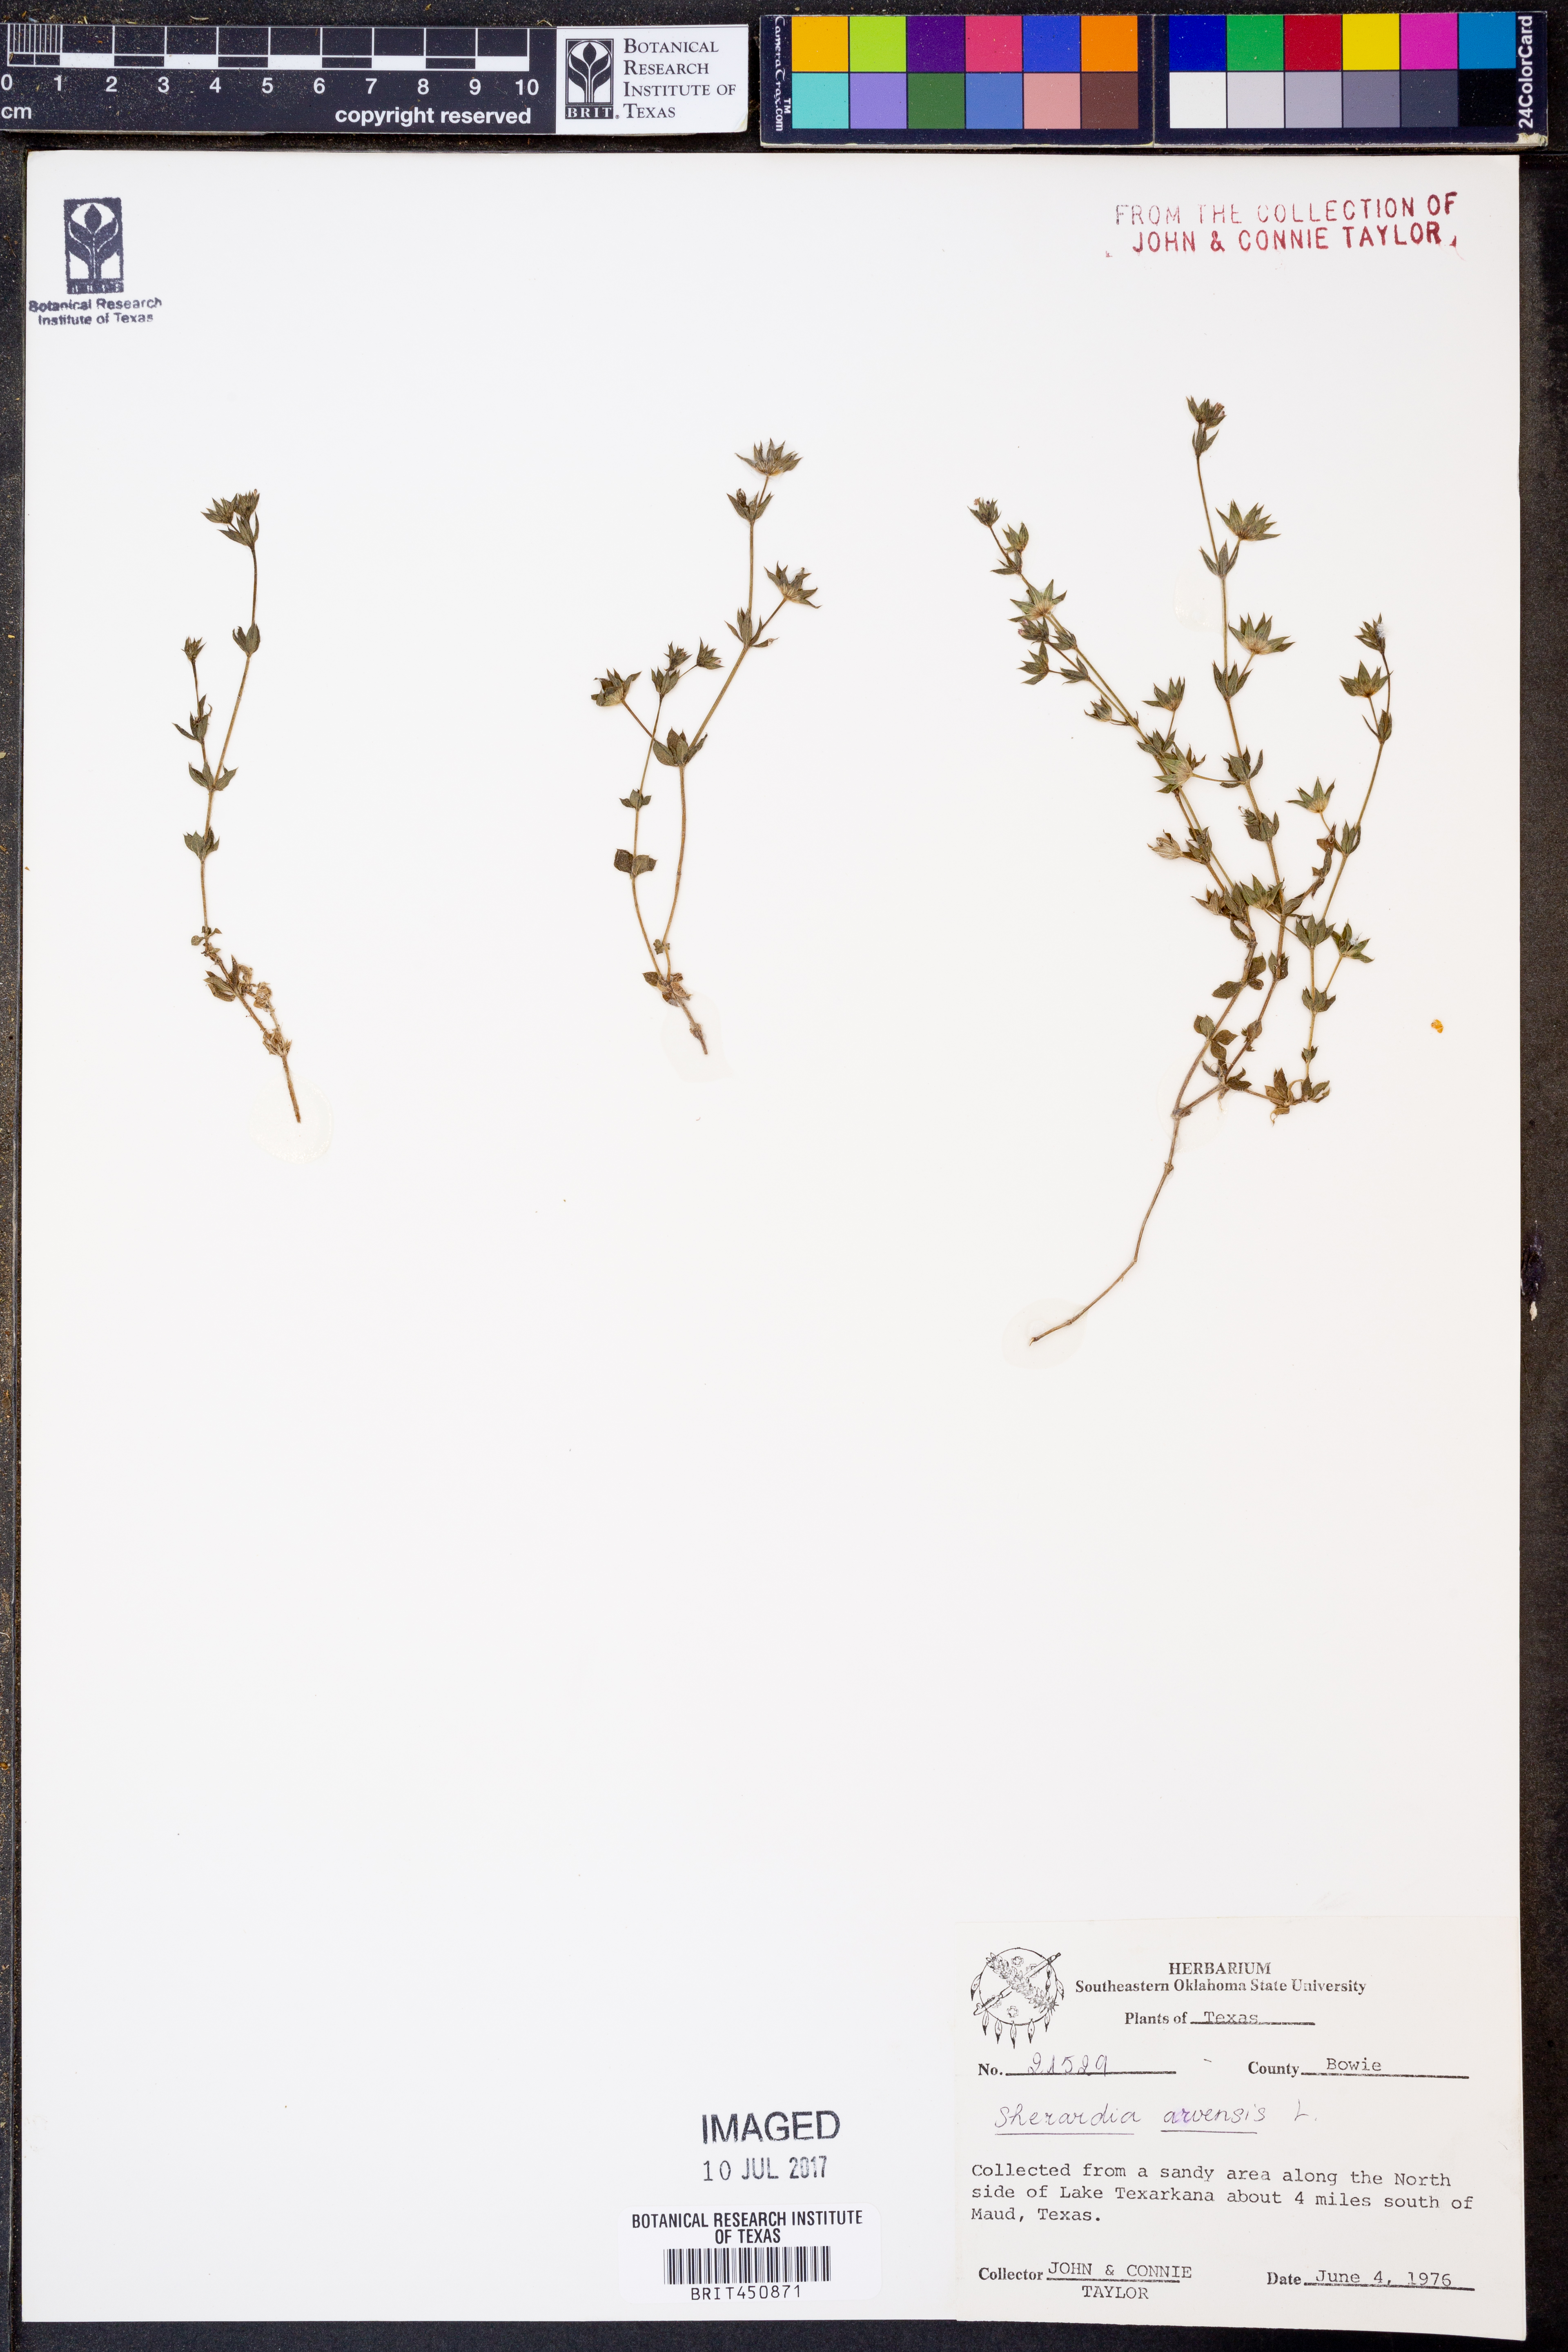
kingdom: Plantae
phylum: Tracheophyta
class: Magnoliopsida
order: Gentianales
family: Rubiaceae
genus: Sherardia
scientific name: Sherardia arvensis
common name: Field madder
